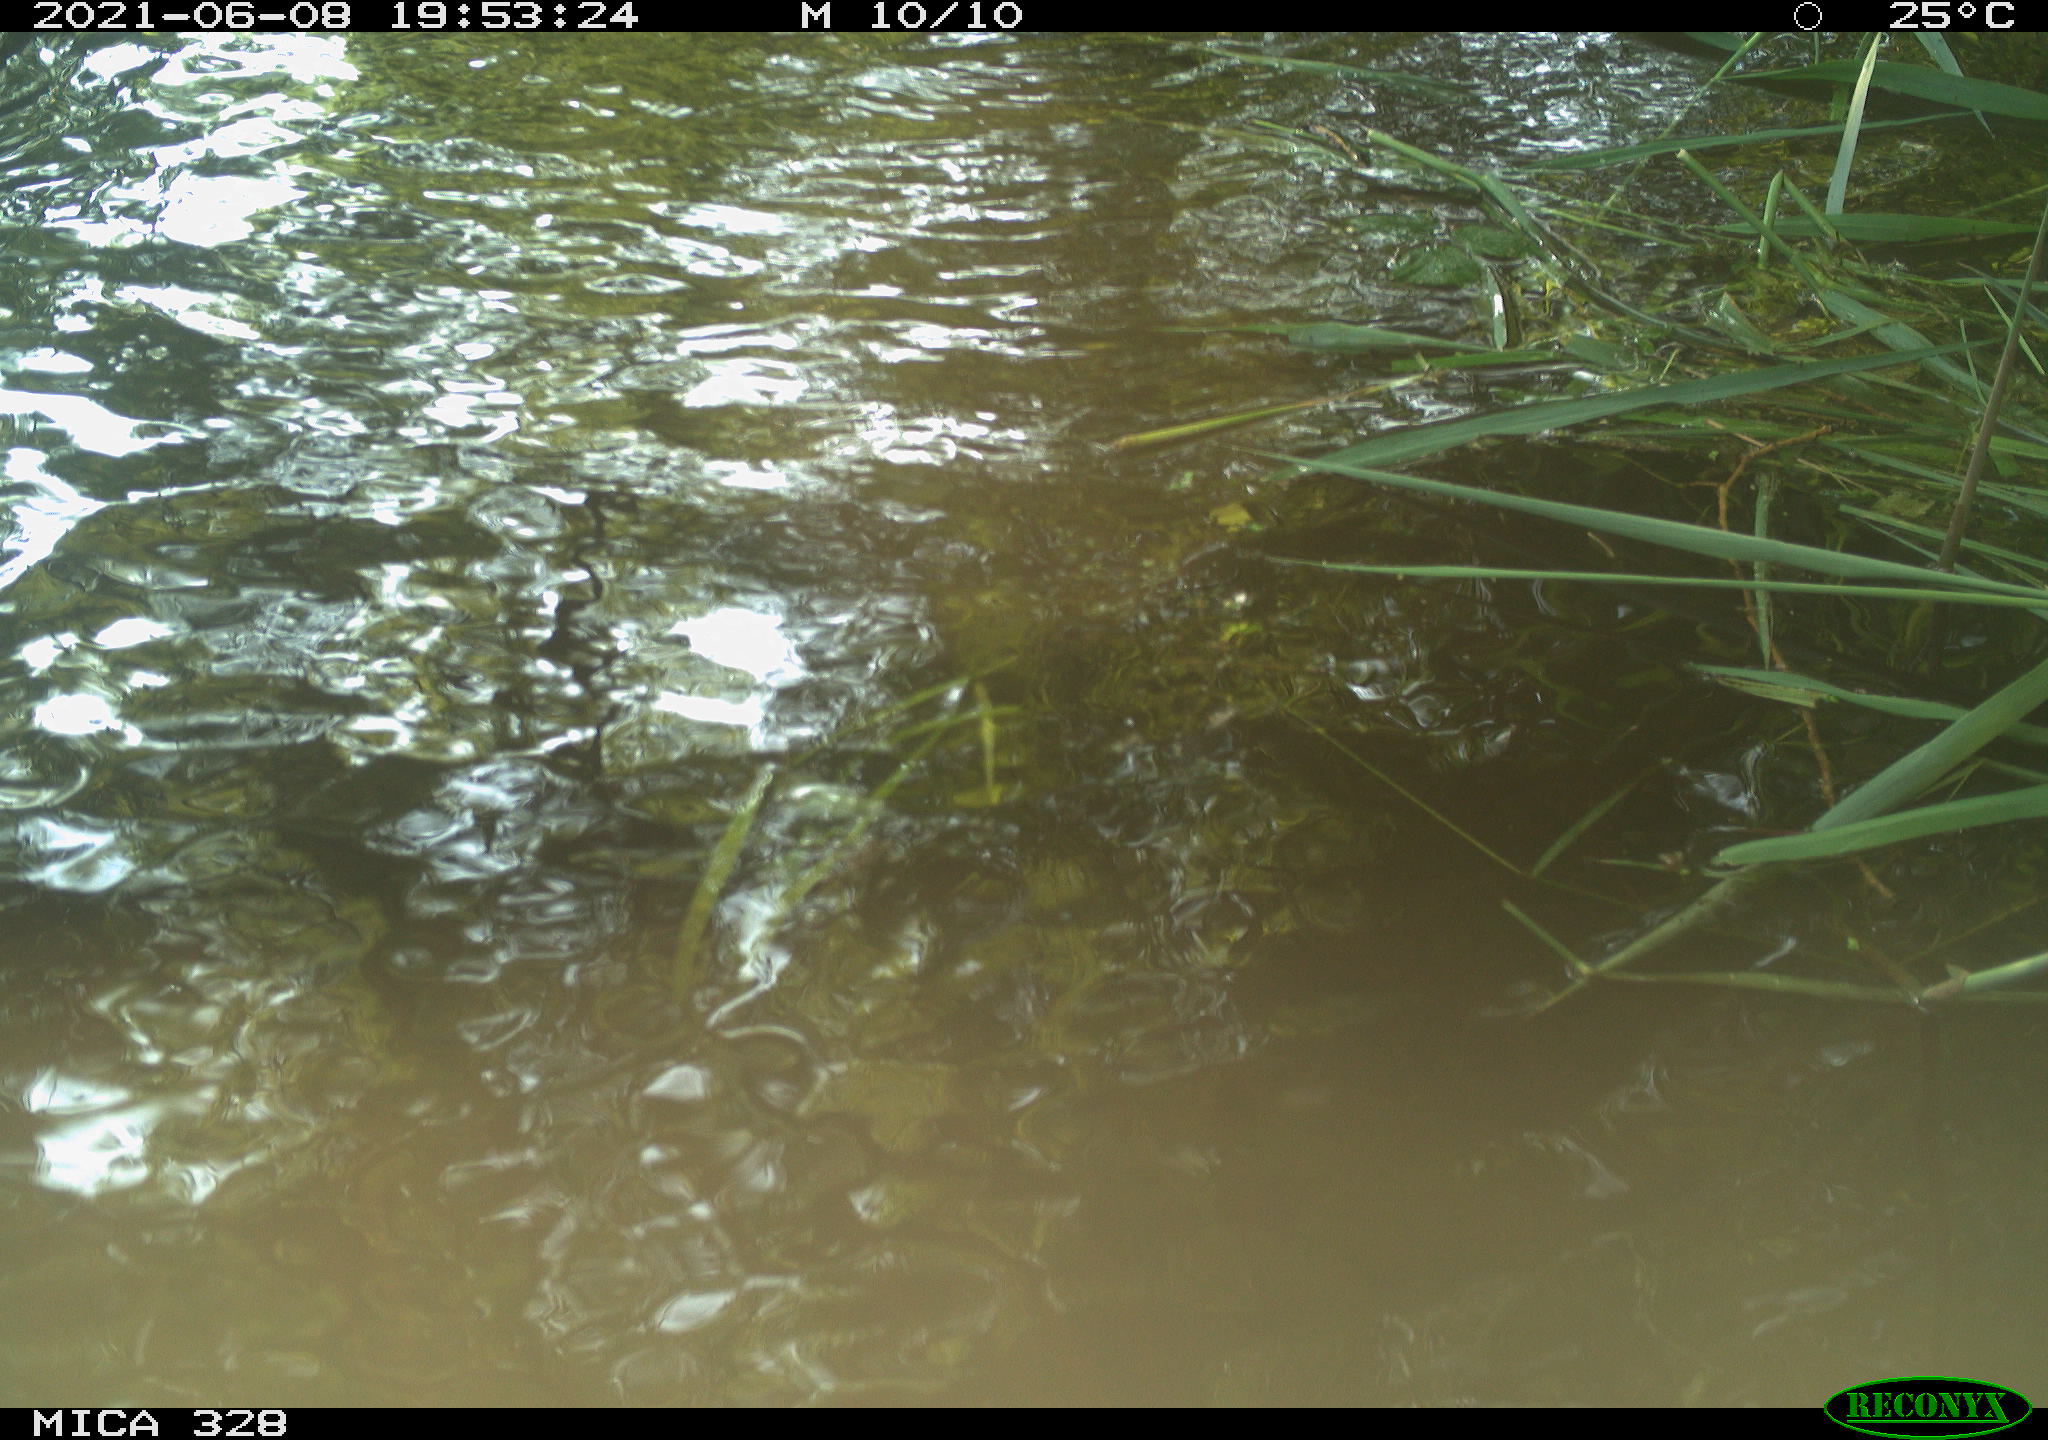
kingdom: Animalia
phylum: Chordata
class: Aves
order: Anseriformes
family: Anatidae
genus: Aix
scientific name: Aix galericulata
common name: Mandarin duck
